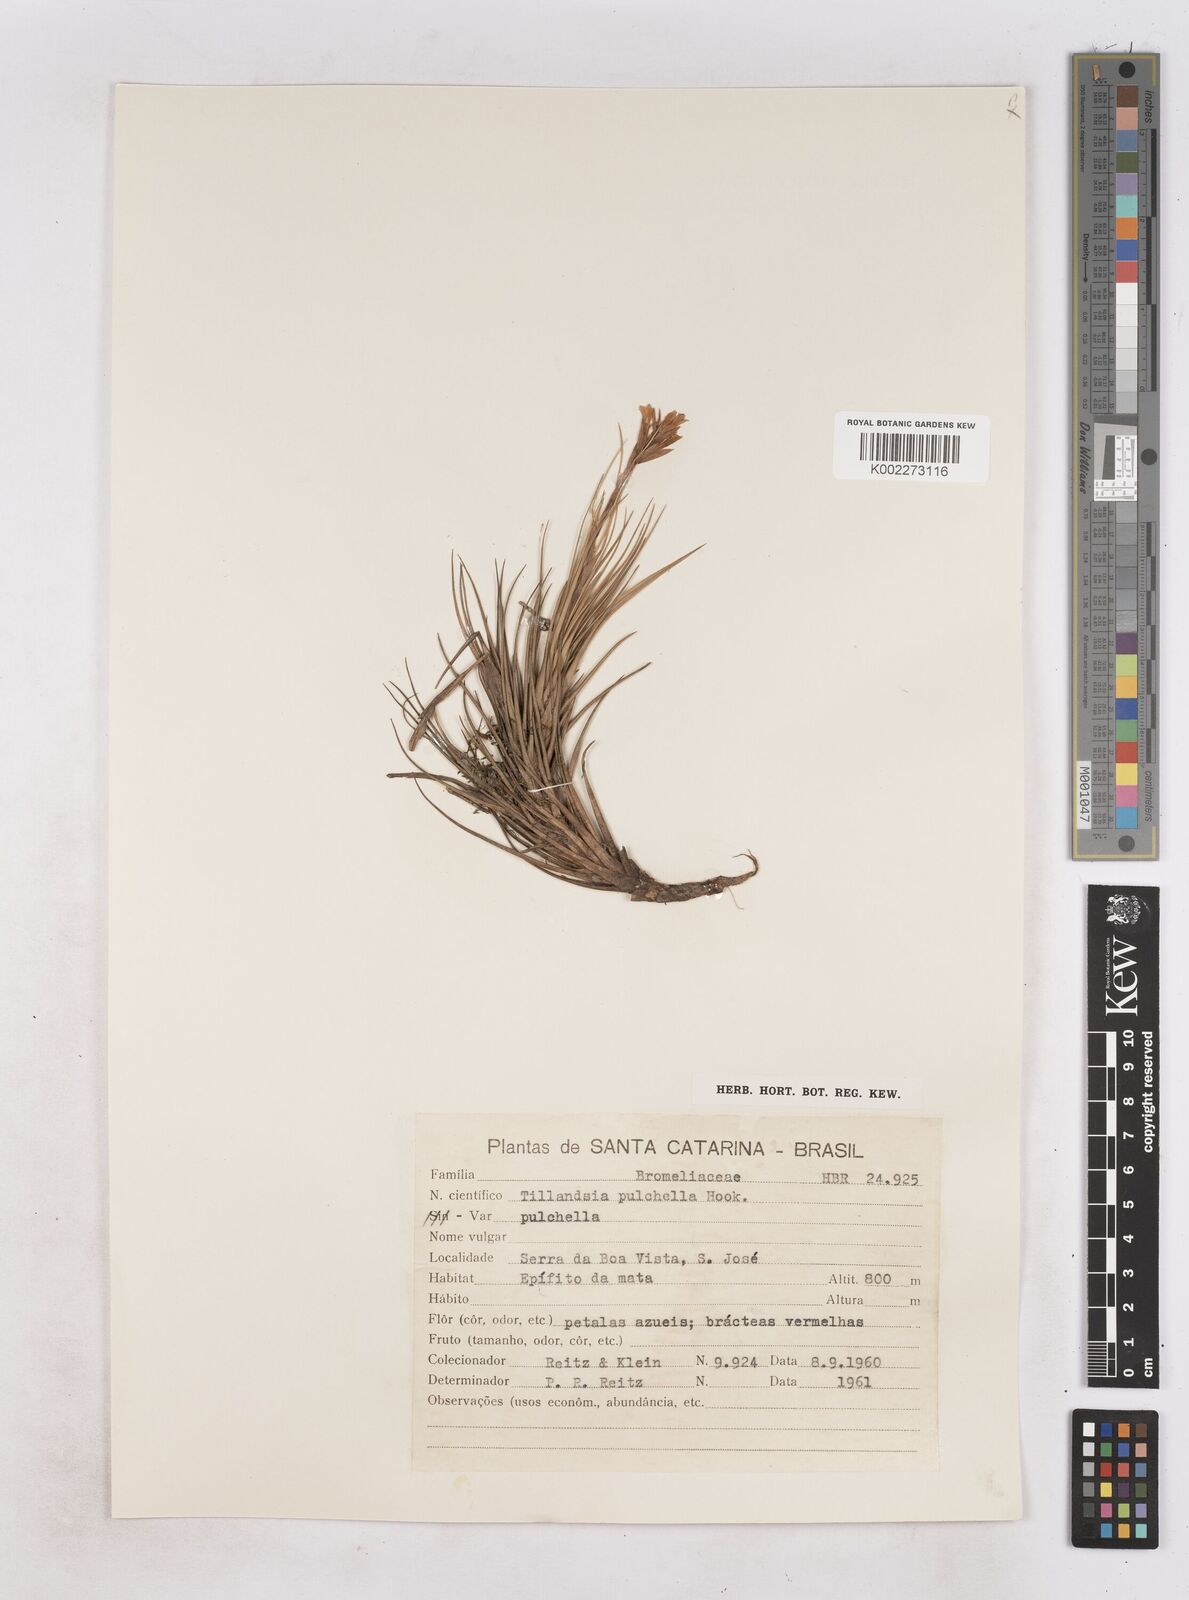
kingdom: Plantae
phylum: Tracheophyta
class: Liliopsida
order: Poales
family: Bromeliaceae
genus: Tillandsia
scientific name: Tillandsia tenuifolia
